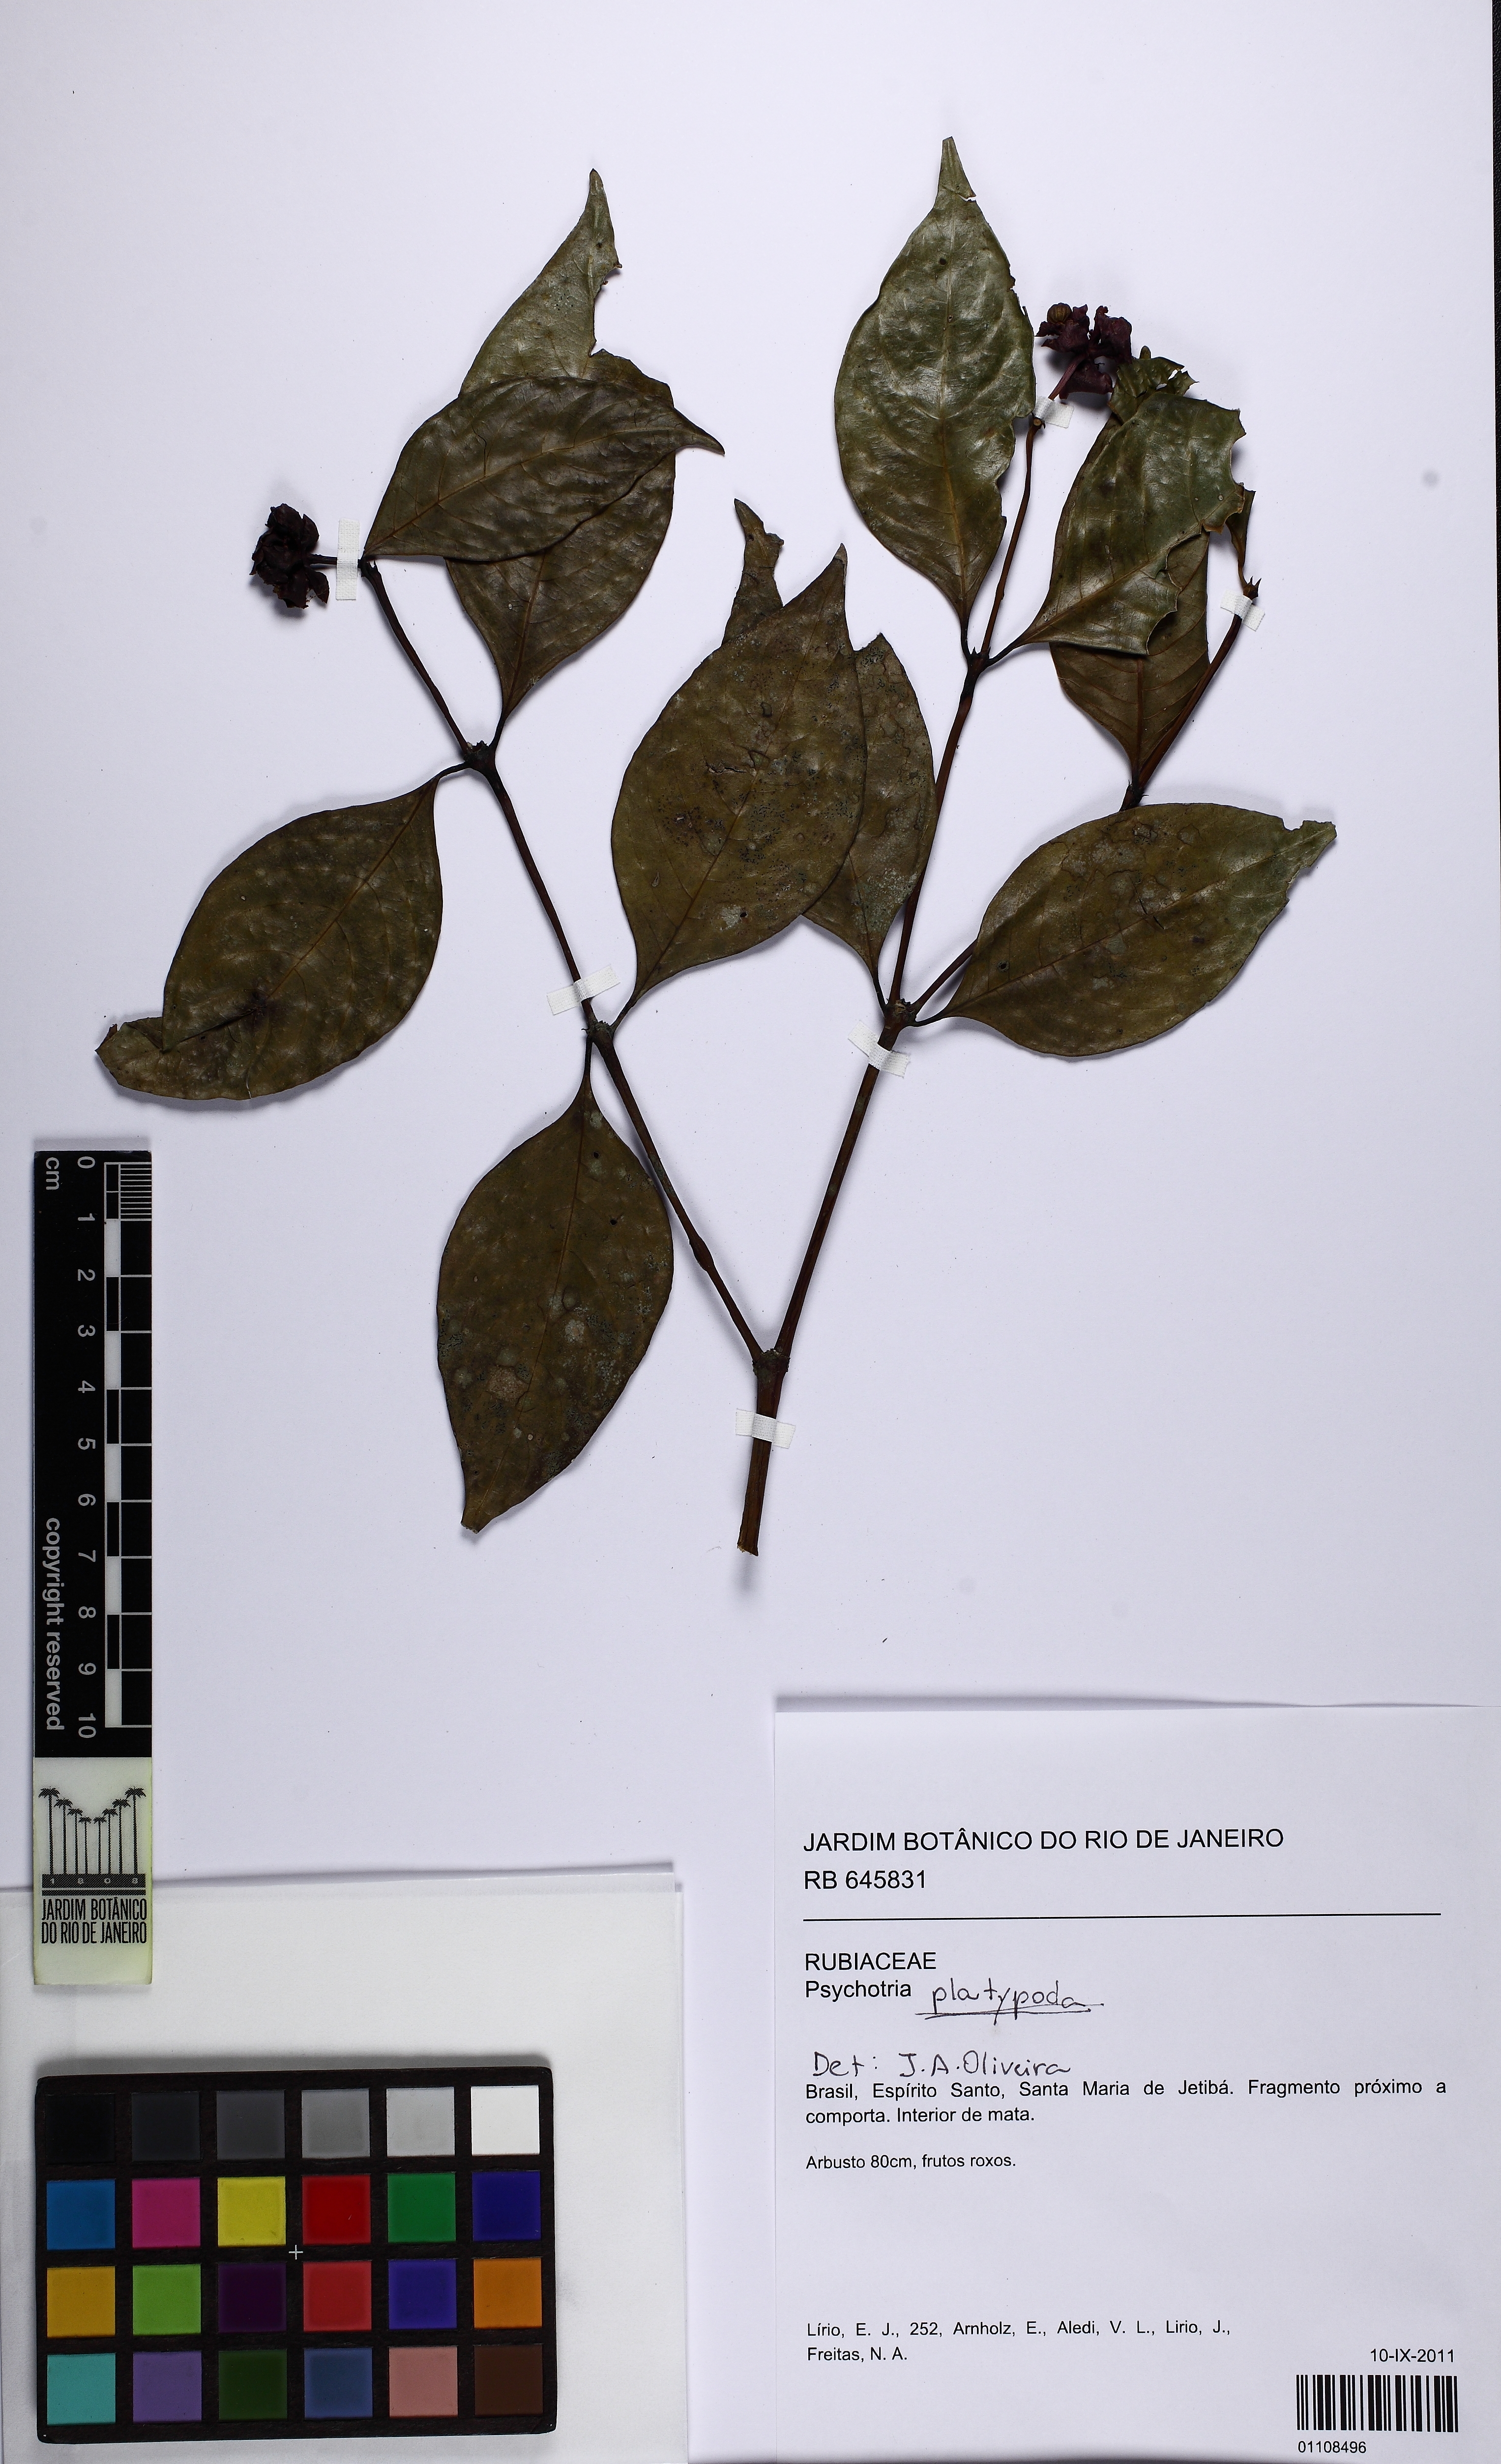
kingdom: Plantae
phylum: Tracheophyta
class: Magnoliopsida
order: Gentianales
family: Rubiaceae
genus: Psychotria
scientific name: Psychotria
